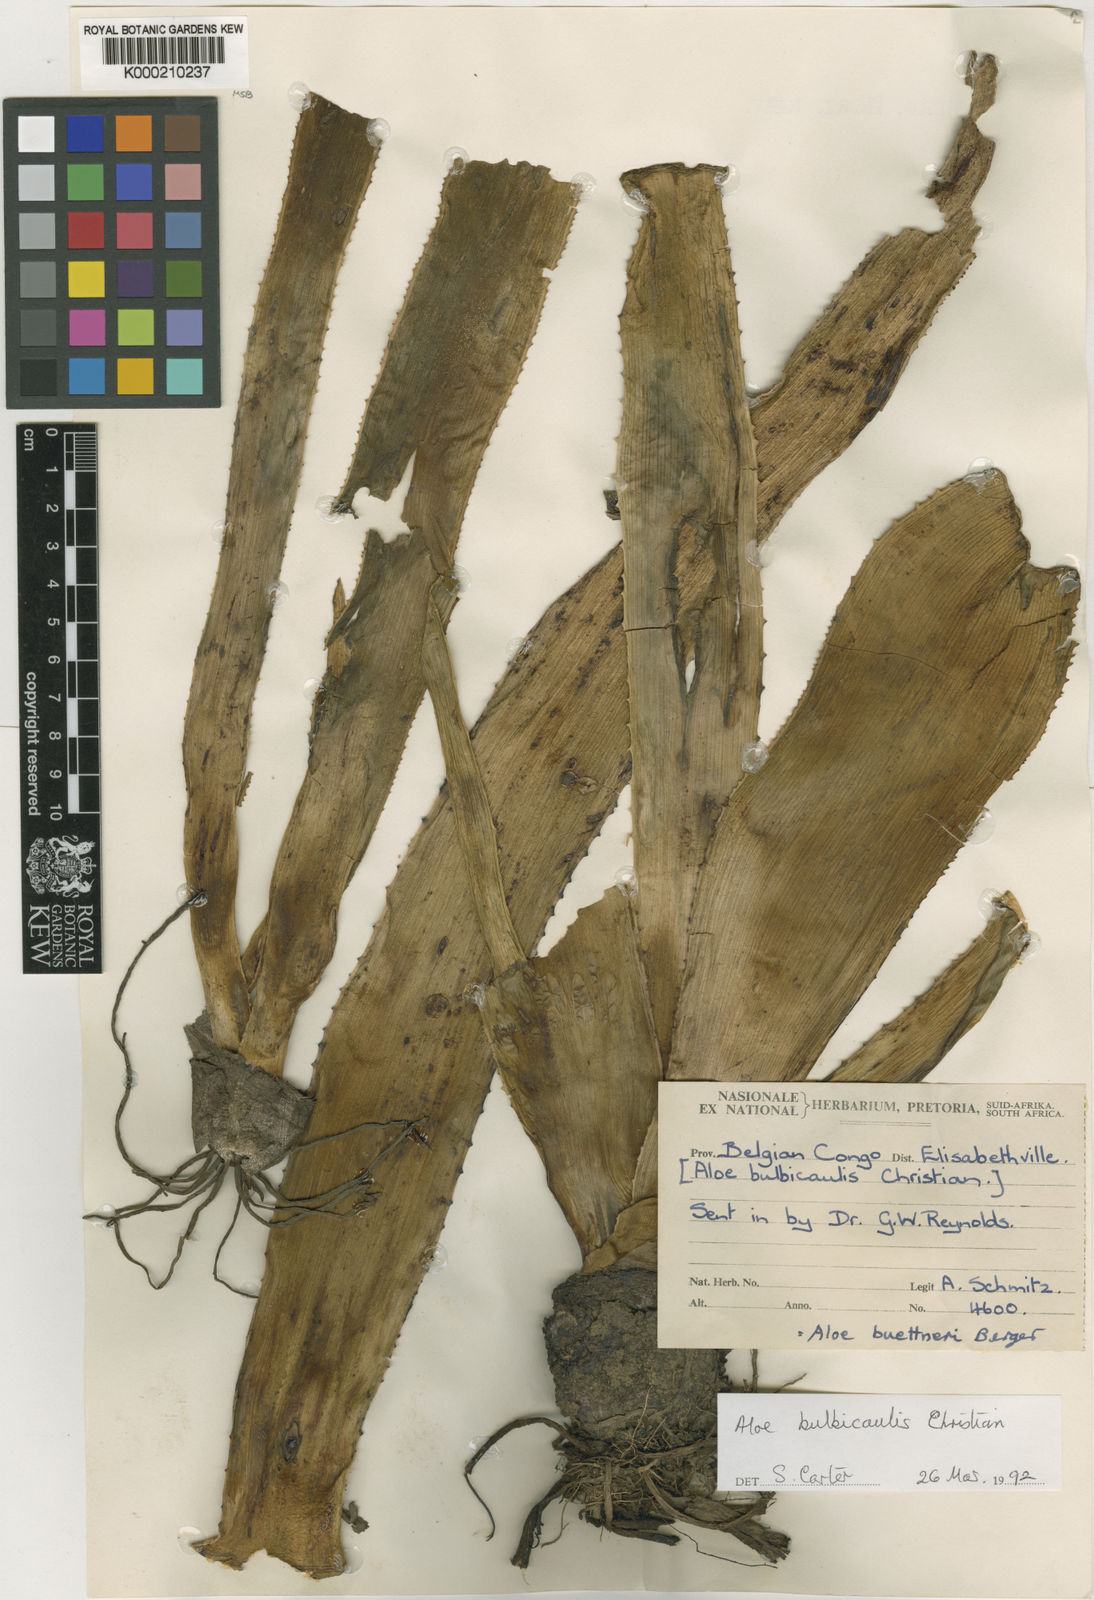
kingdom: Plantae
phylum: Tracheophyta
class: Liliopsida
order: Asparagales
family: Asphodelaceae
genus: Aloe
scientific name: Aloe bulbicaulis
